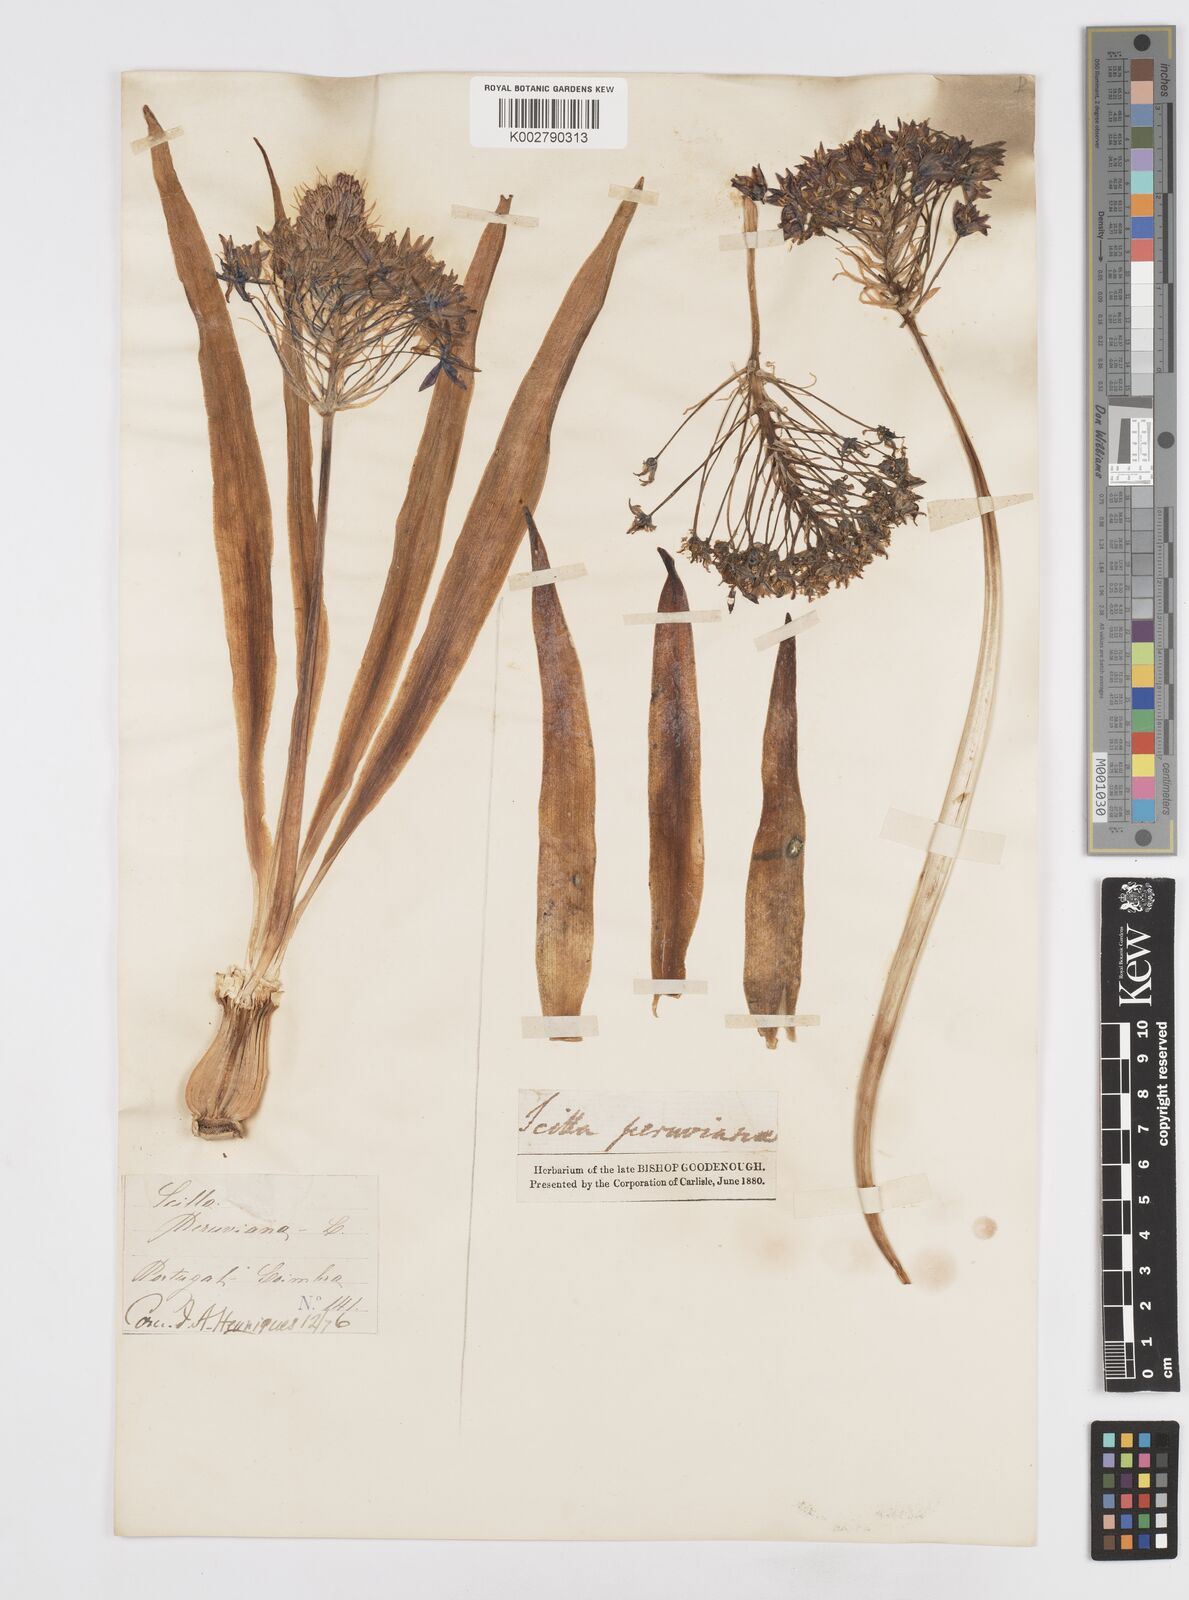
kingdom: Plantae
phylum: Tracheophyta
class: Liliopsida
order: Asparagales
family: Asparagaceae
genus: Scilla
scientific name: Scilla peruviana
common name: Portuguese squill
